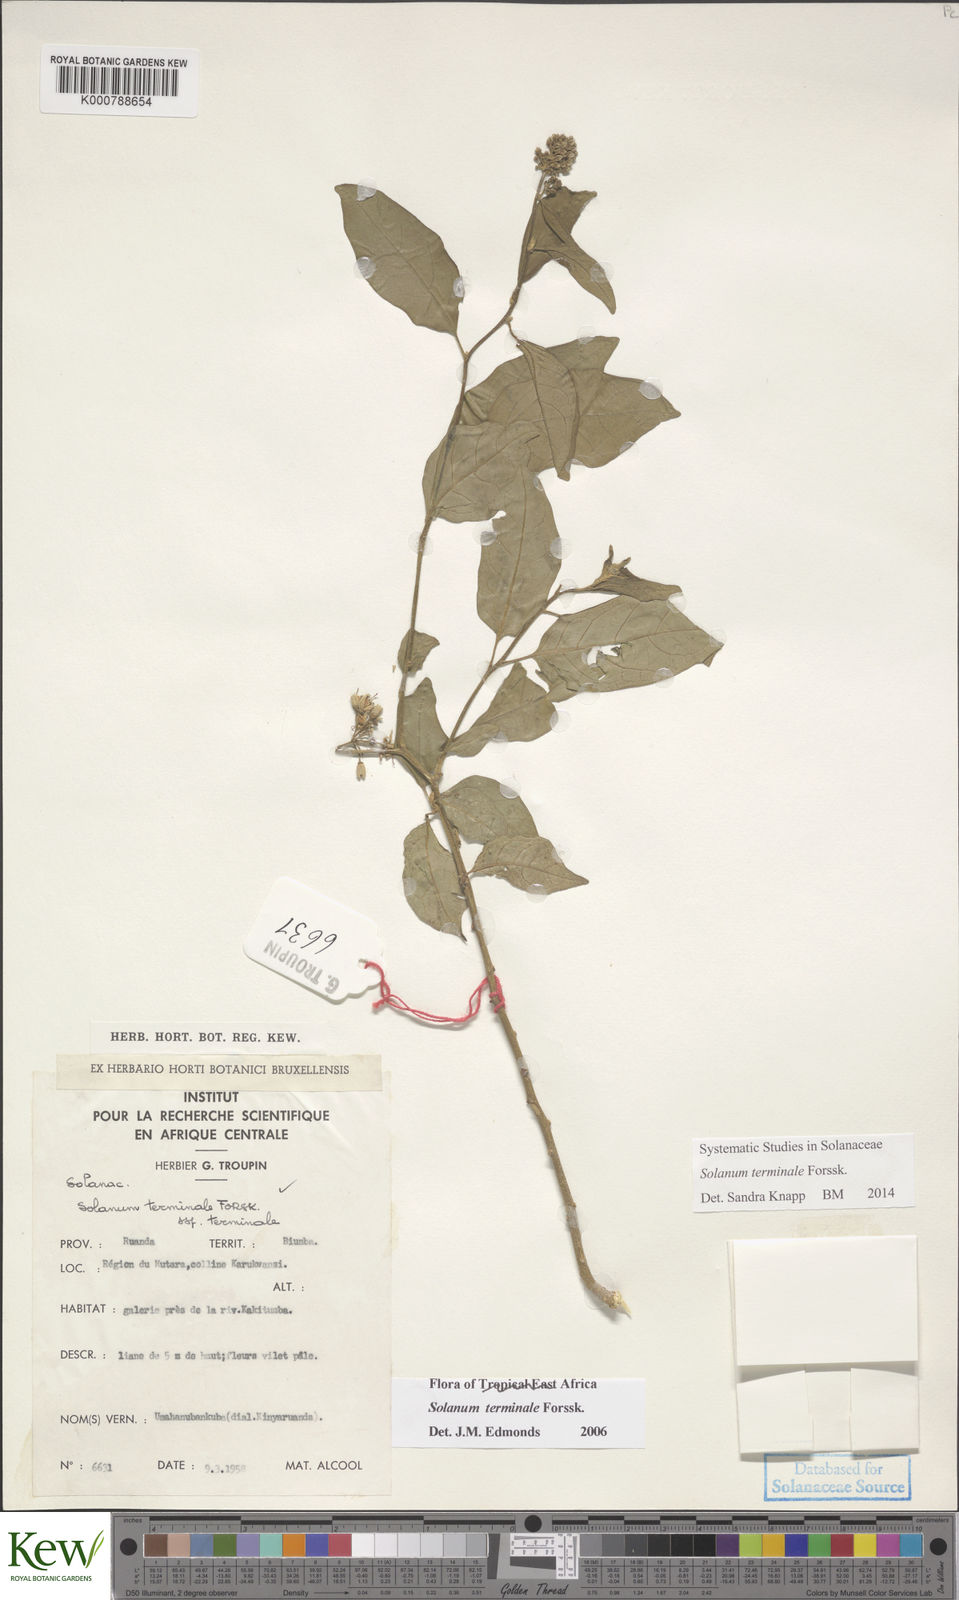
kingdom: Plantae
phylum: Tracheophyta
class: Magnoliopsida
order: Solanales
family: Solanaceae
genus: Solanum
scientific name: Solanum terminale
